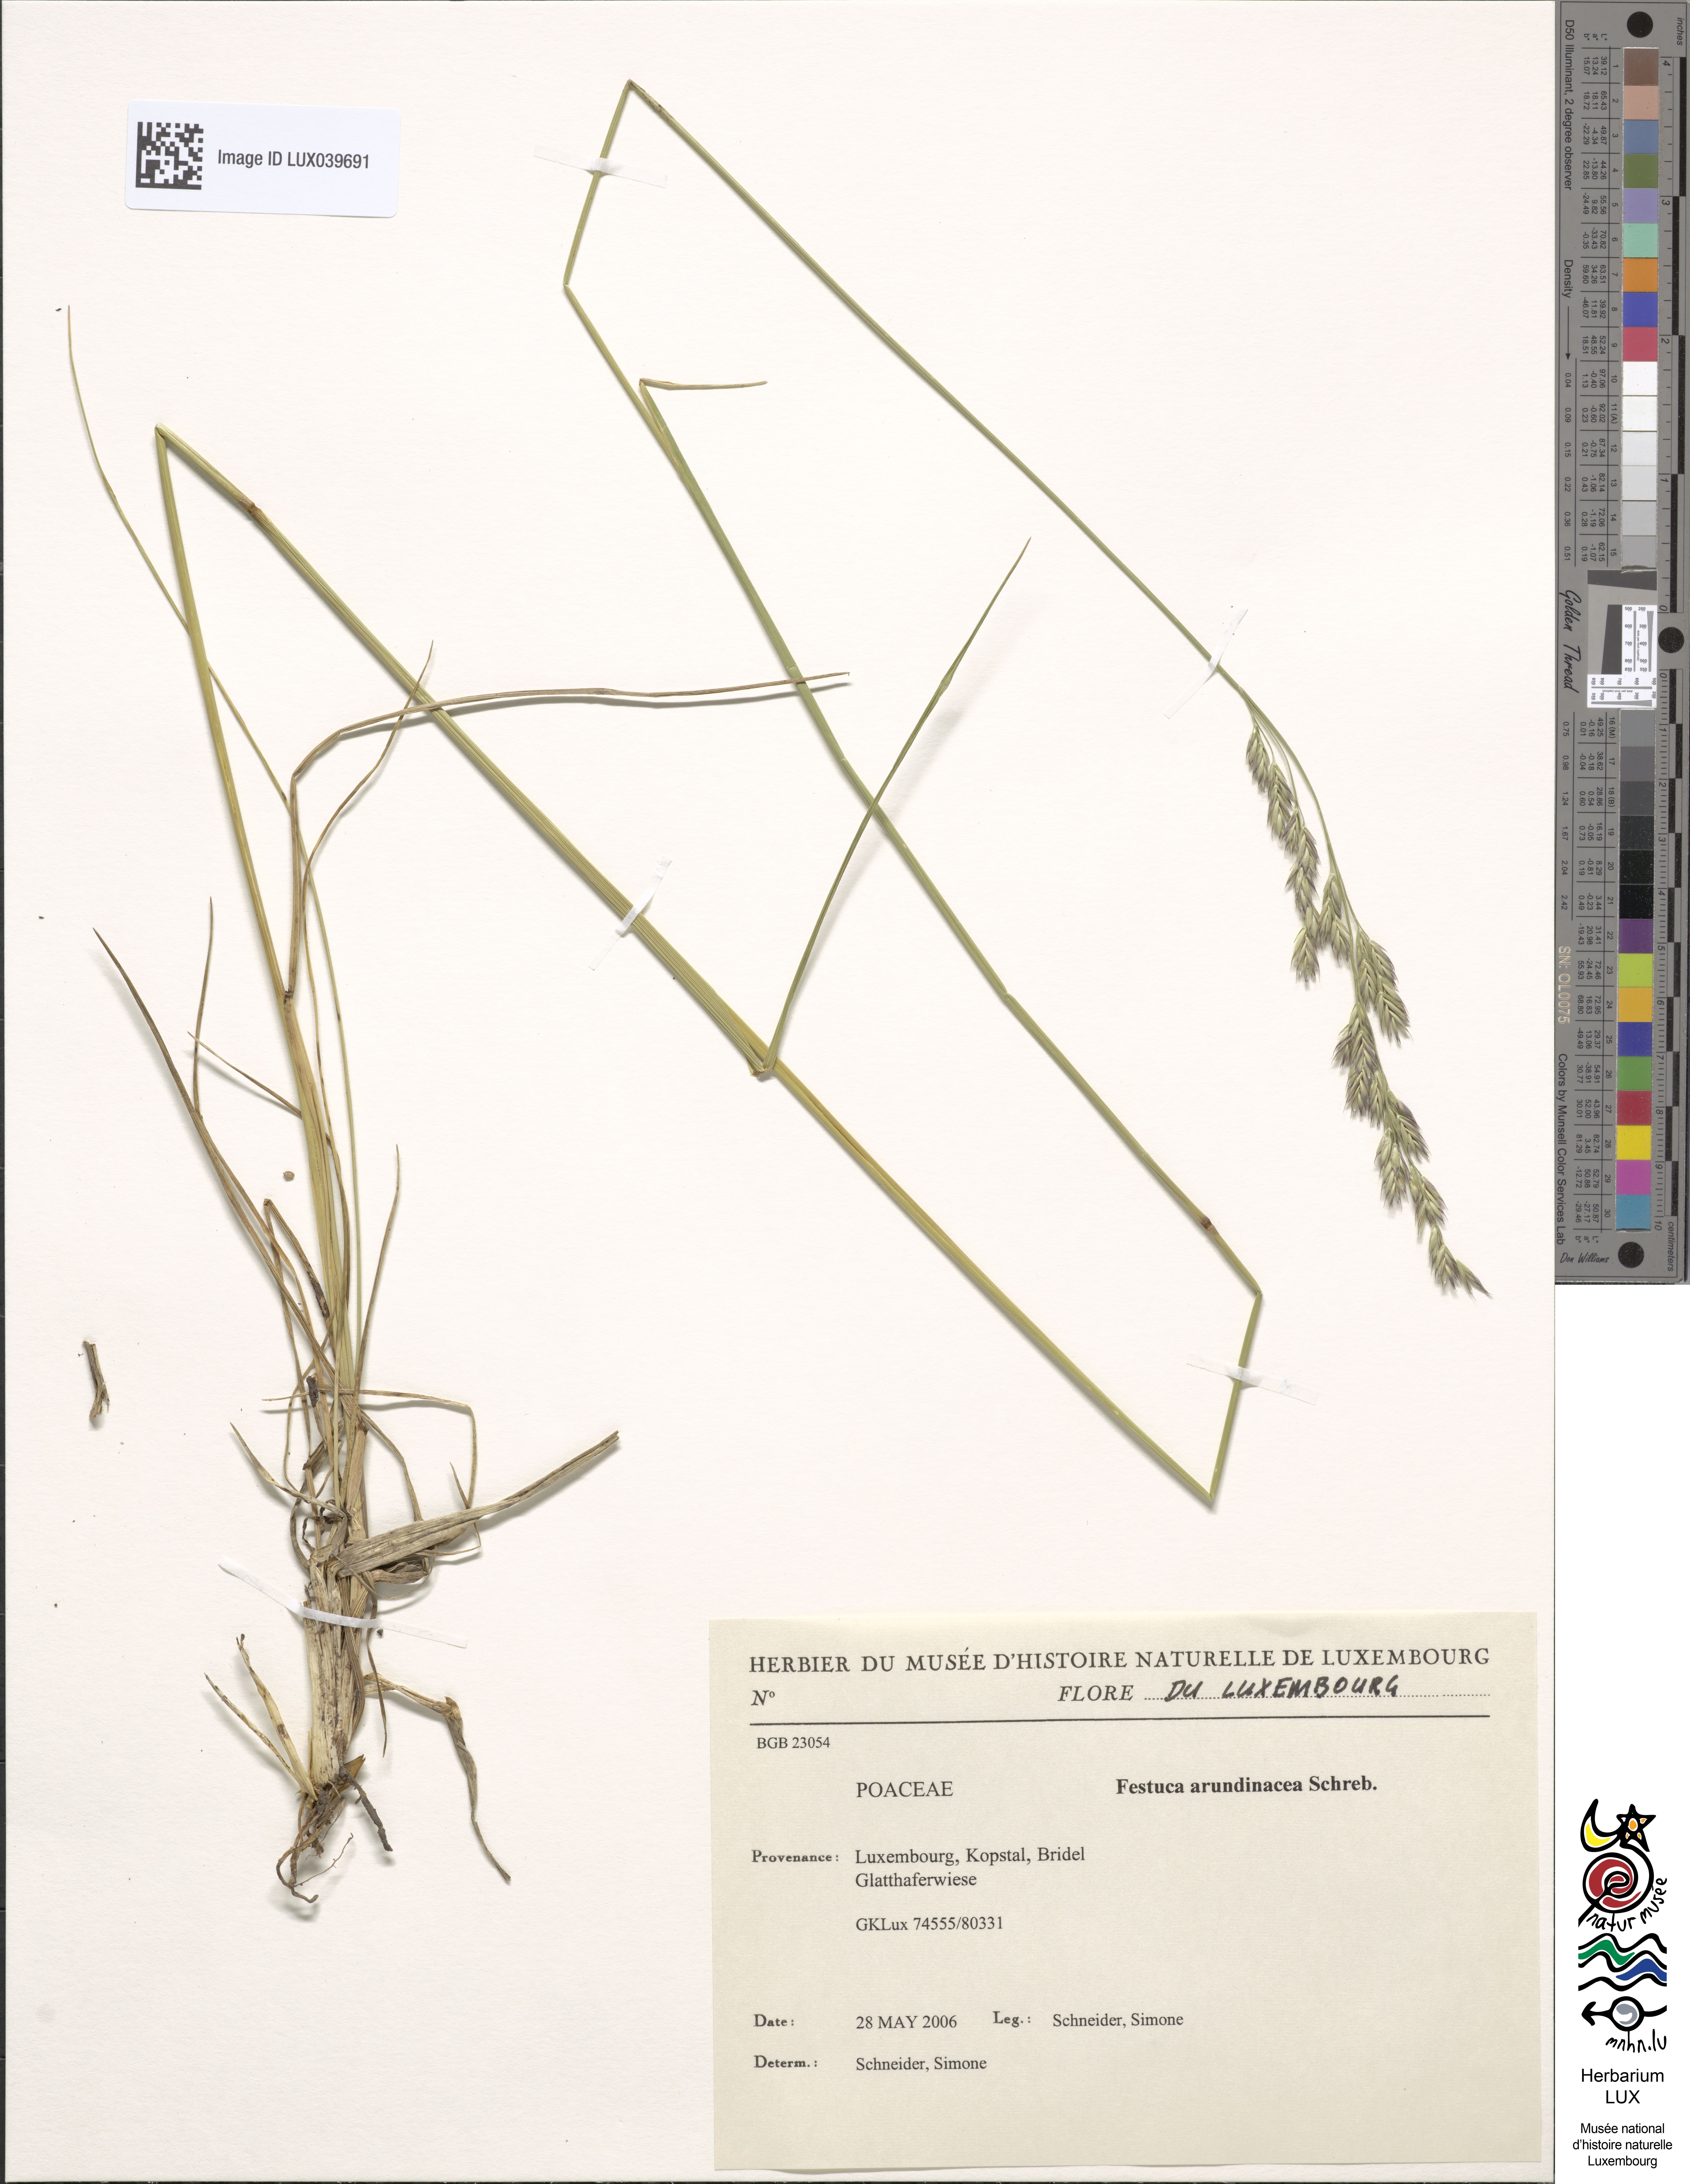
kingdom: Plantae
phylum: Tracheophyta
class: Liliopsida
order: Poales
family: Poaceae
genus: Lolium
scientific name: Lolium arundinaceum
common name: Reed fescue
